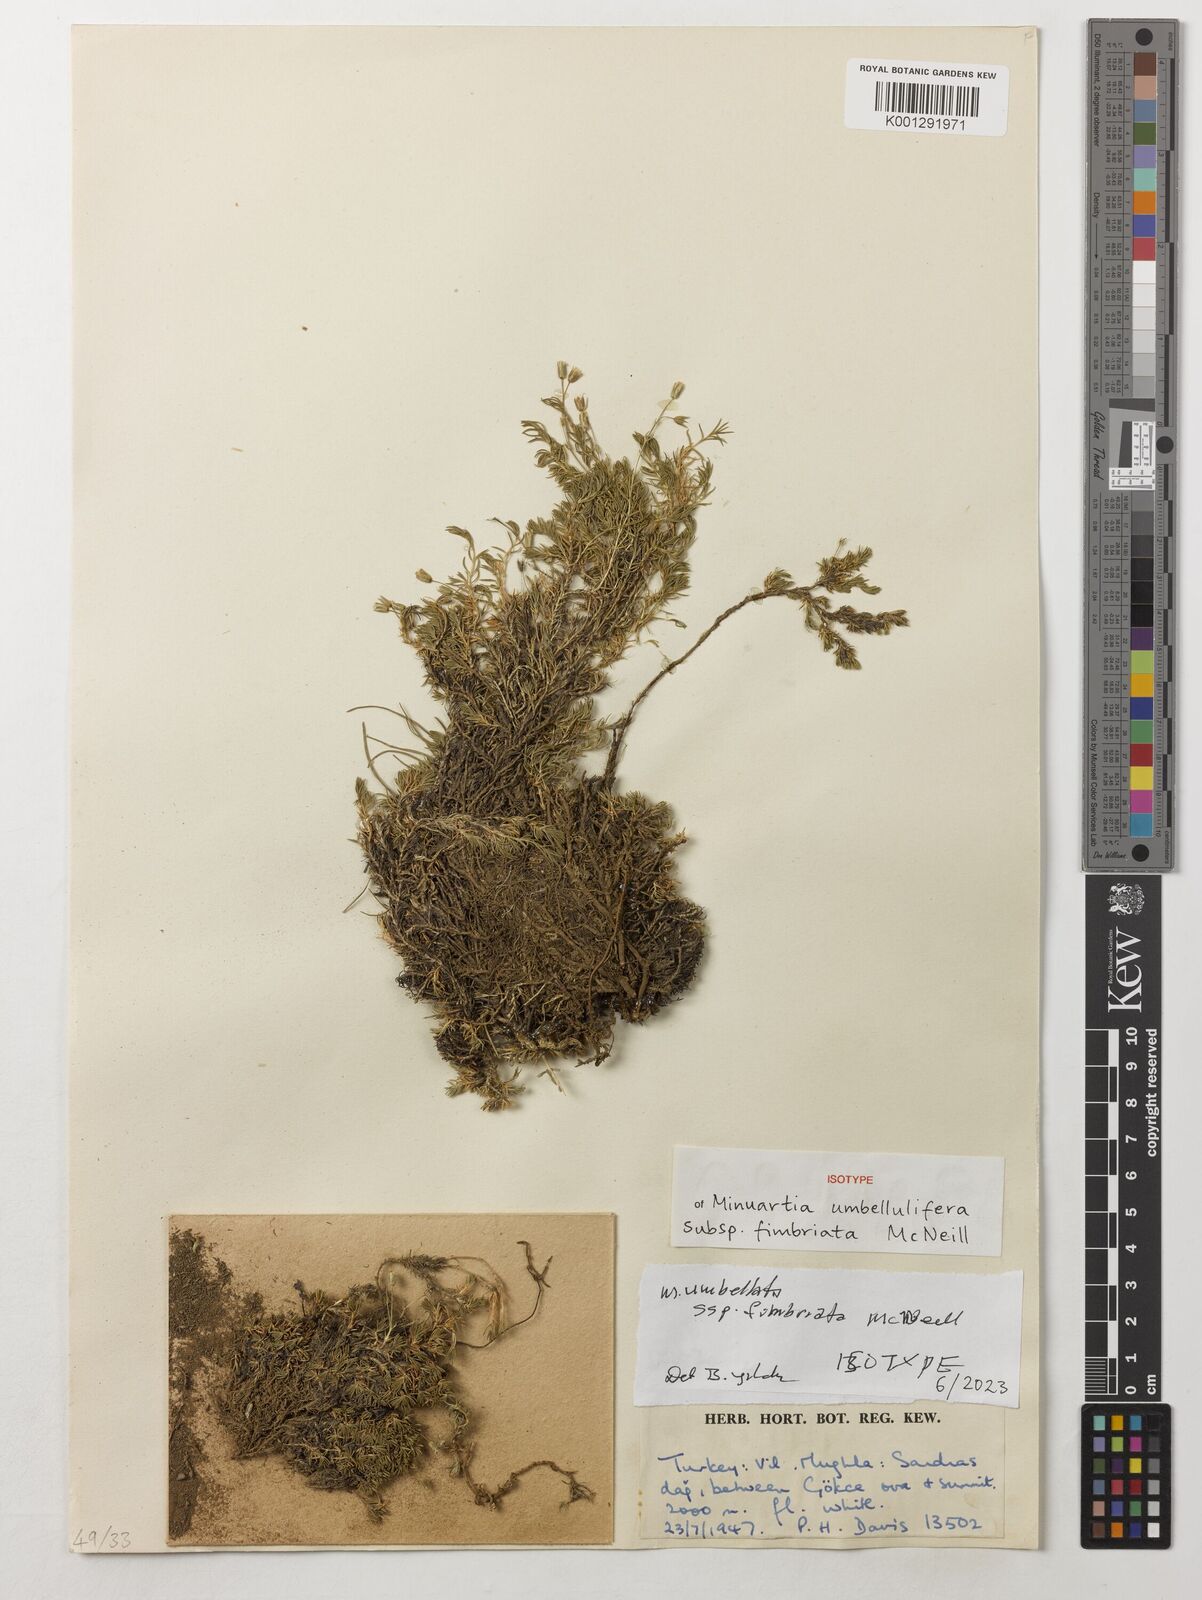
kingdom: Plantae
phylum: Tracheophyta
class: Magnoliopsida
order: Caryophyllales
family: Caryophyllaceae
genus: Sabulina
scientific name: Sabulina umbellulifera
